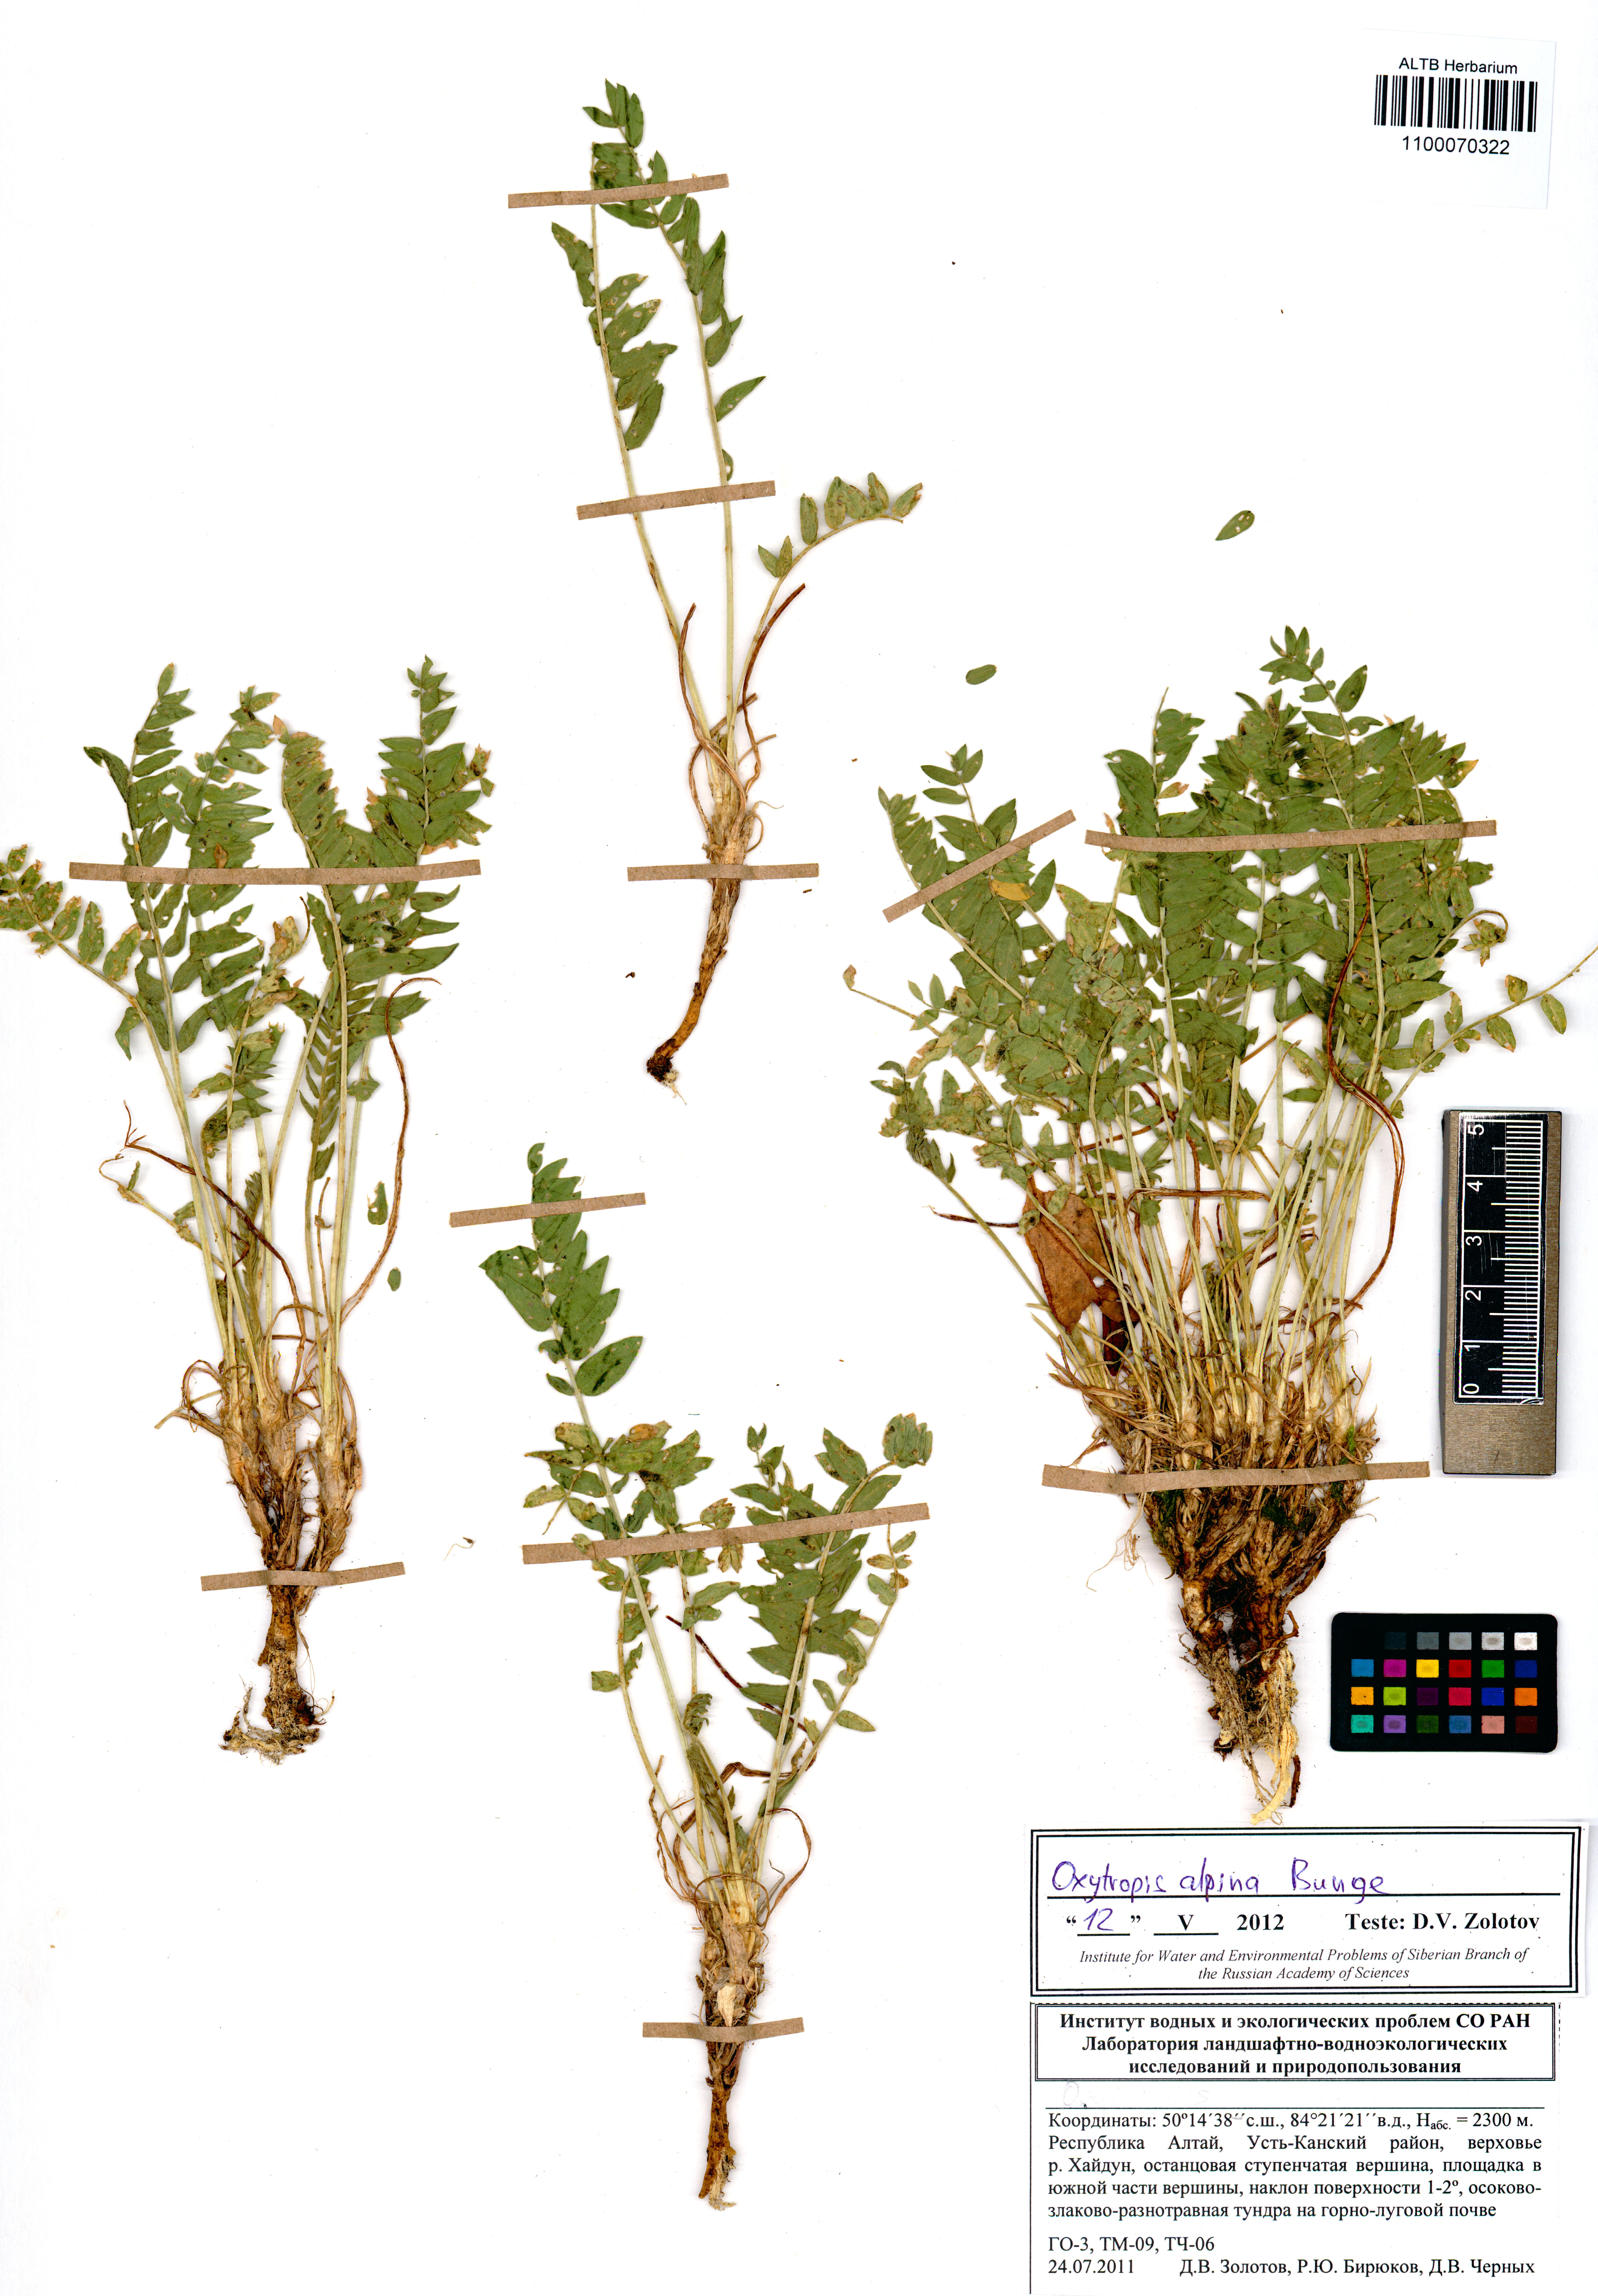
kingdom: Plantae
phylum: Tracheophyta
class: Magnoliopsida
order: Fabales
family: Fabaceae
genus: Oxytropis
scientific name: Oxytropis alpina
